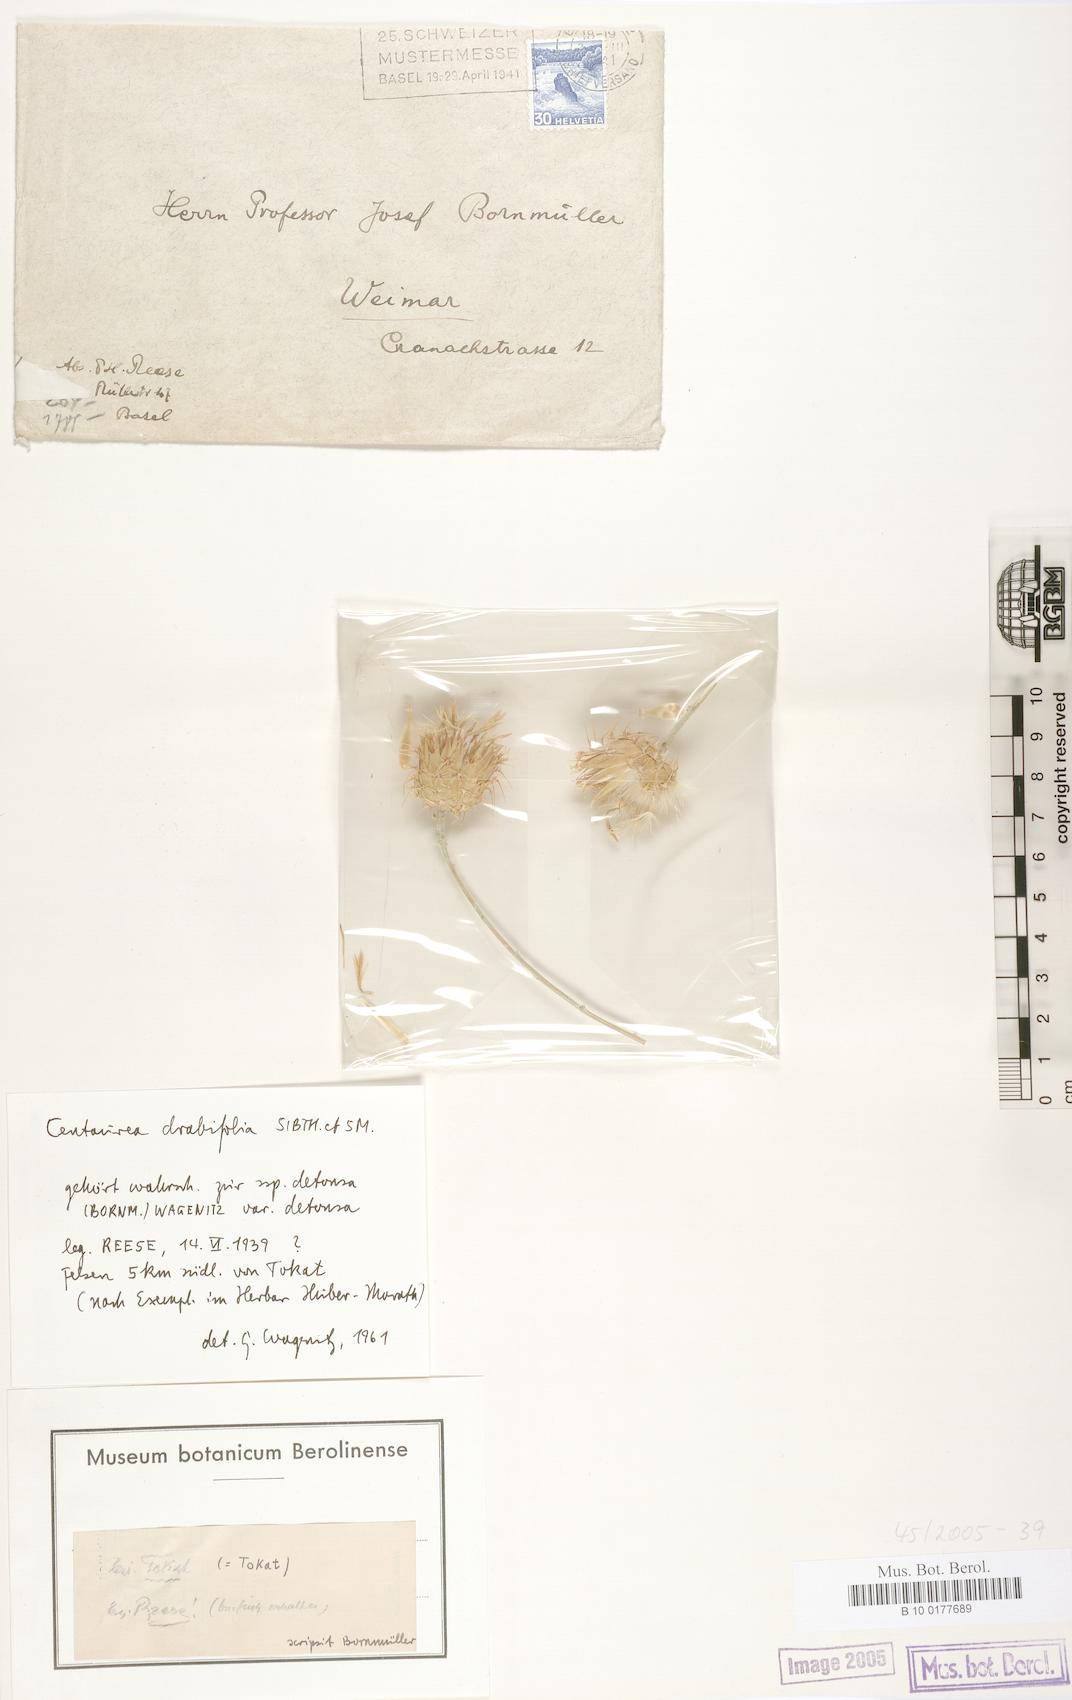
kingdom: Plantae
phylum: Tracheophyta
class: Magnoliopsida
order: Asterales
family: Asteraceae
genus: Centaurea
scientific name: Centaurea kotschyi
